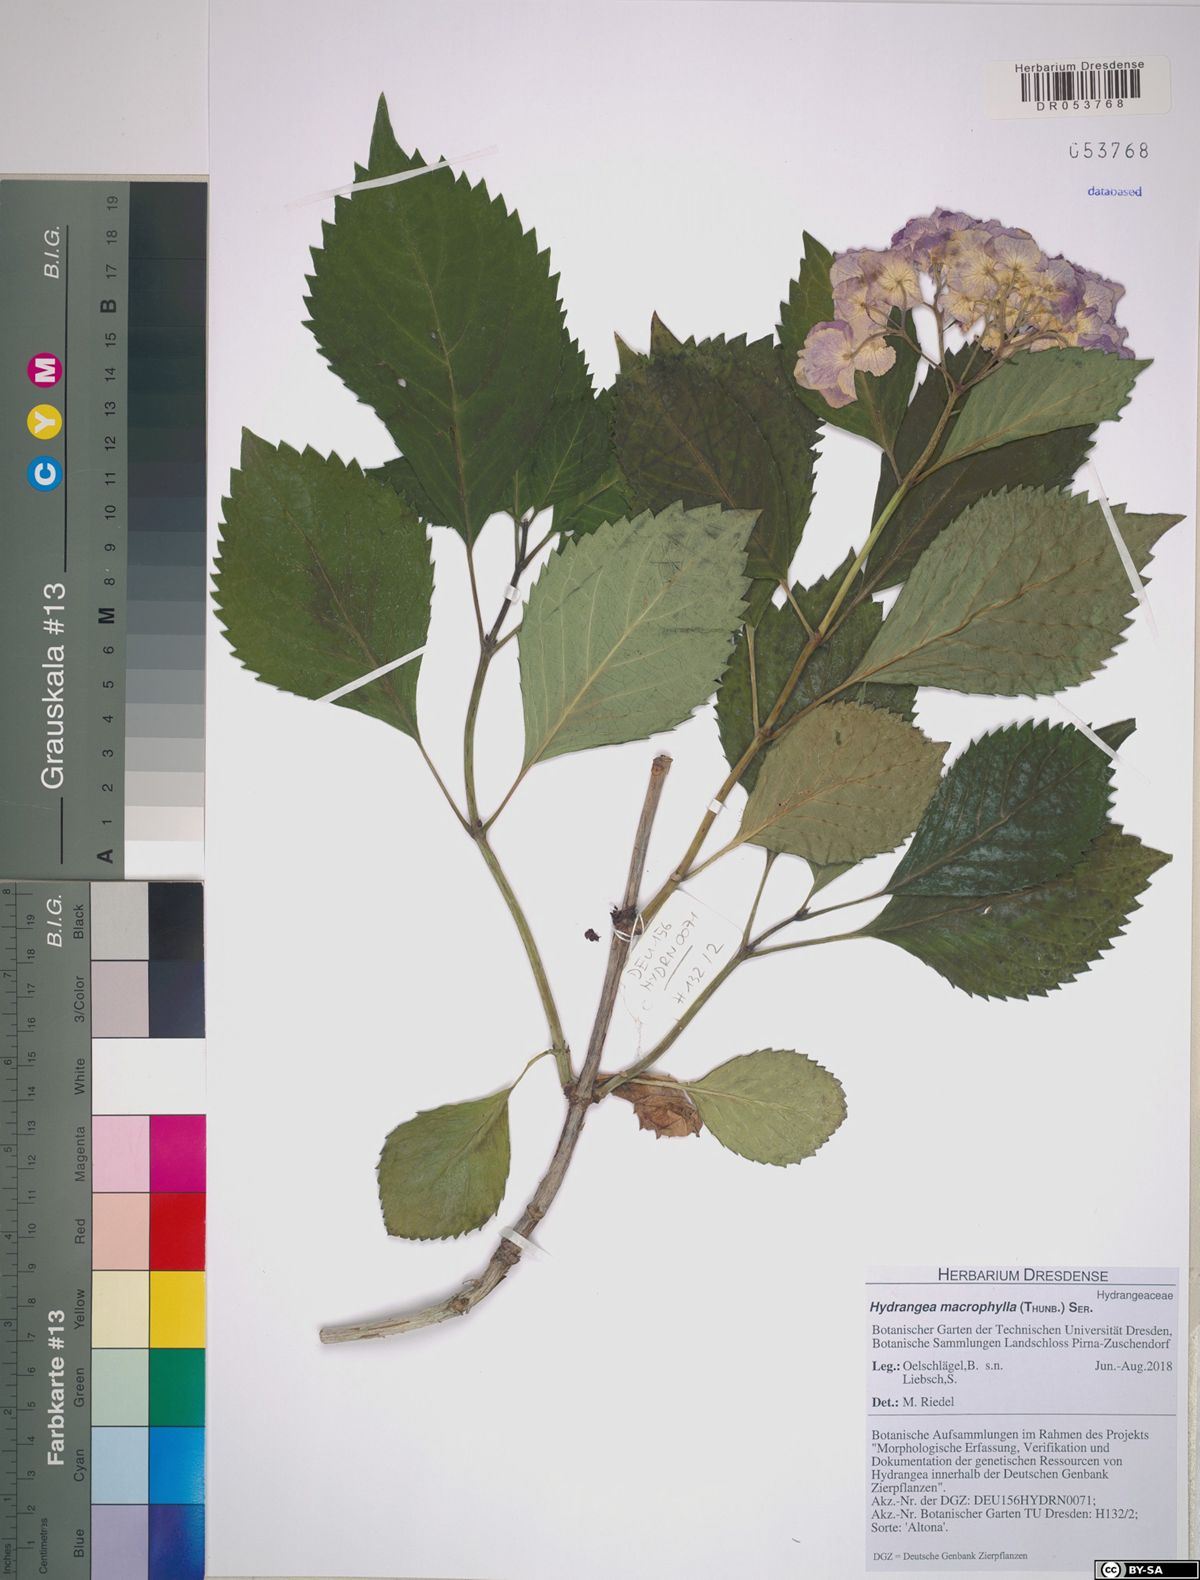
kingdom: Plantae
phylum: Tracheophyta
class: Magnoliopsida
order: Cornales
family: Hydrangeaceae
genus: Hydrangea
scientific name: Hydrangea macrophylla
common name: Hydrangea
